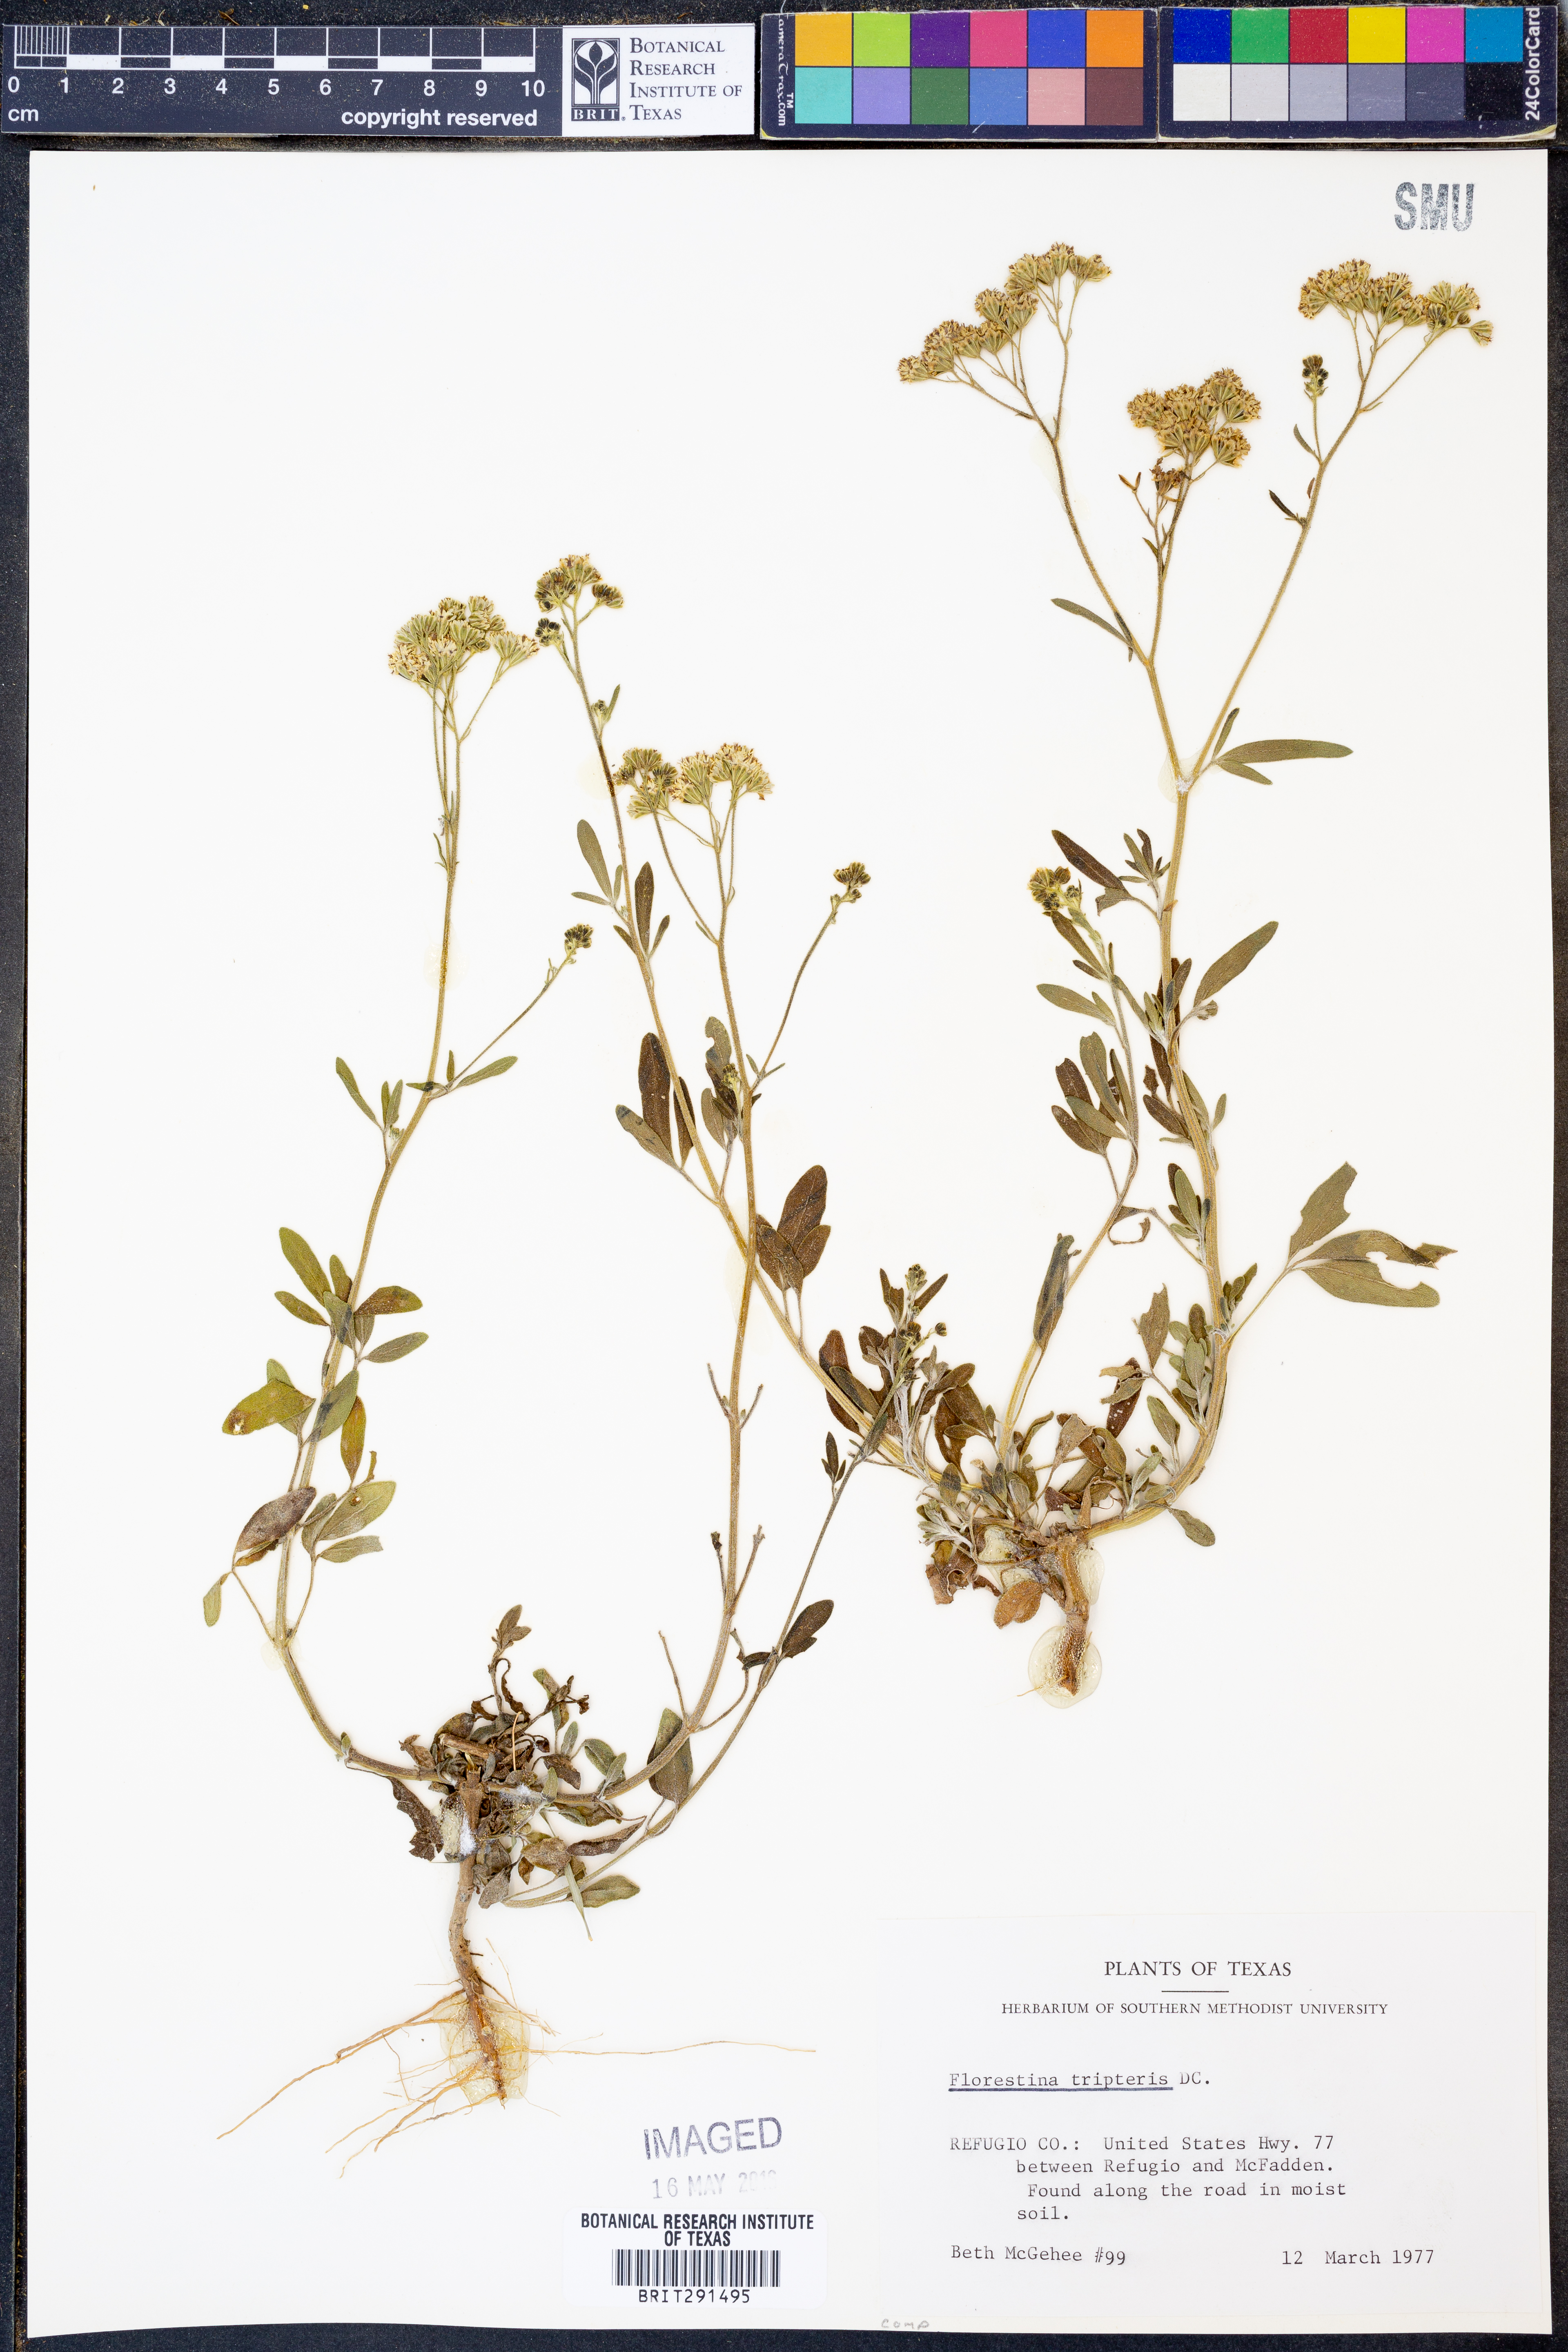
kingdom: Plantae
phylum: Tracheophyta
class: Magnoliopsida
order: Asterales
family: Asteraceae
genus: Florestina
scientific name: Florestina tripteris
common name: Sticky florestina
